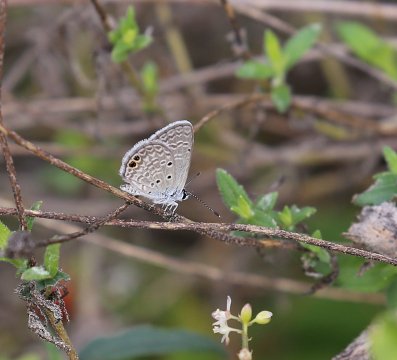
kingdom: Animalia
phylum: Arthropoda
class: Insecta
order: Lepidoptera
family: Lycaenidae
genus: Hemiargus
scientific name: Hemiargus ceraunus
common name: Ceraunus Blue
